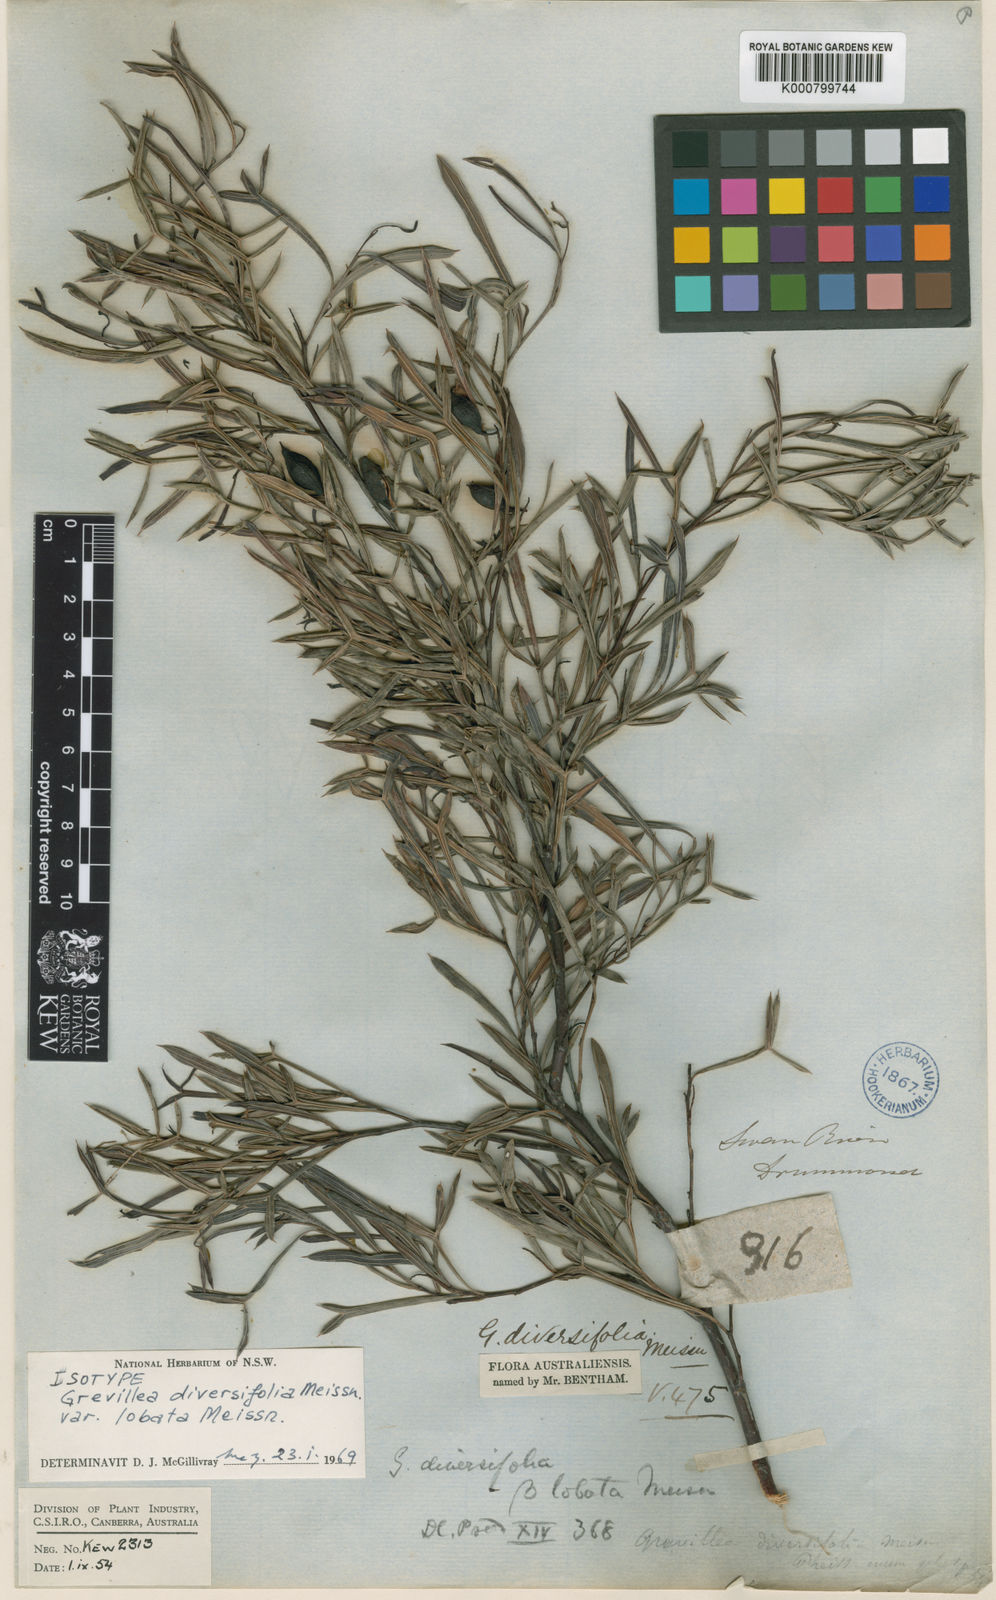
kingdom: Plantae
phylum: Tracheophyta
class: Magnoliopsida
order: Proteales
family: Proteaceae
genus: Grevillea
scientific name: Grevillea papillosa
